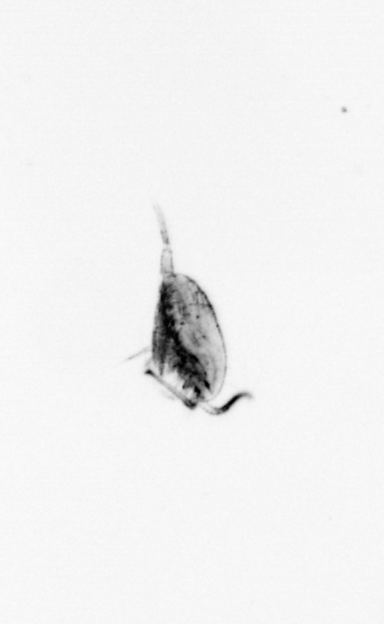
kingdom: Animalia
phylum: Arthropoda
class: Copepoda
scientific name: Copepoda
